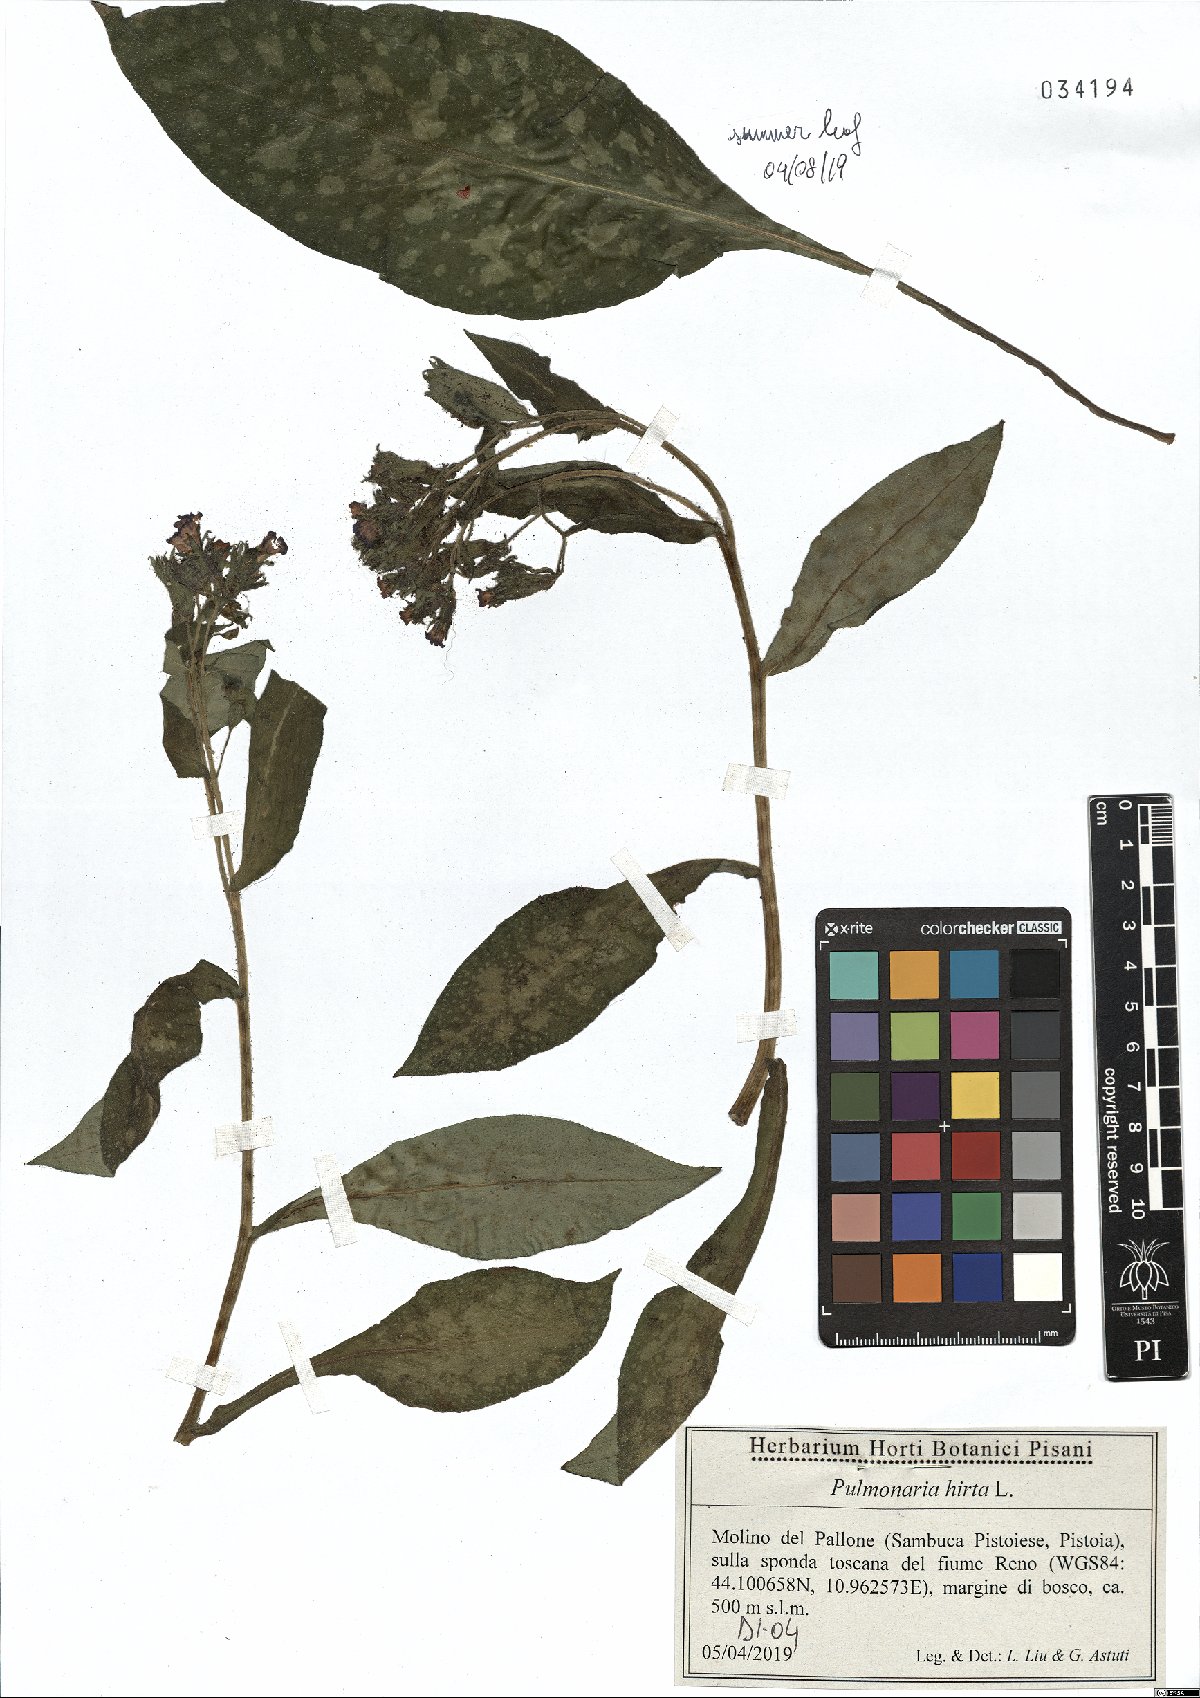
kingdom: Plantae
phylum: Tracheophyta
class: Magnoliopsida
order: Boraginales
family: Boraginaceae
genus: Pulmonaria
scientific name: Pulmonaria hirta
